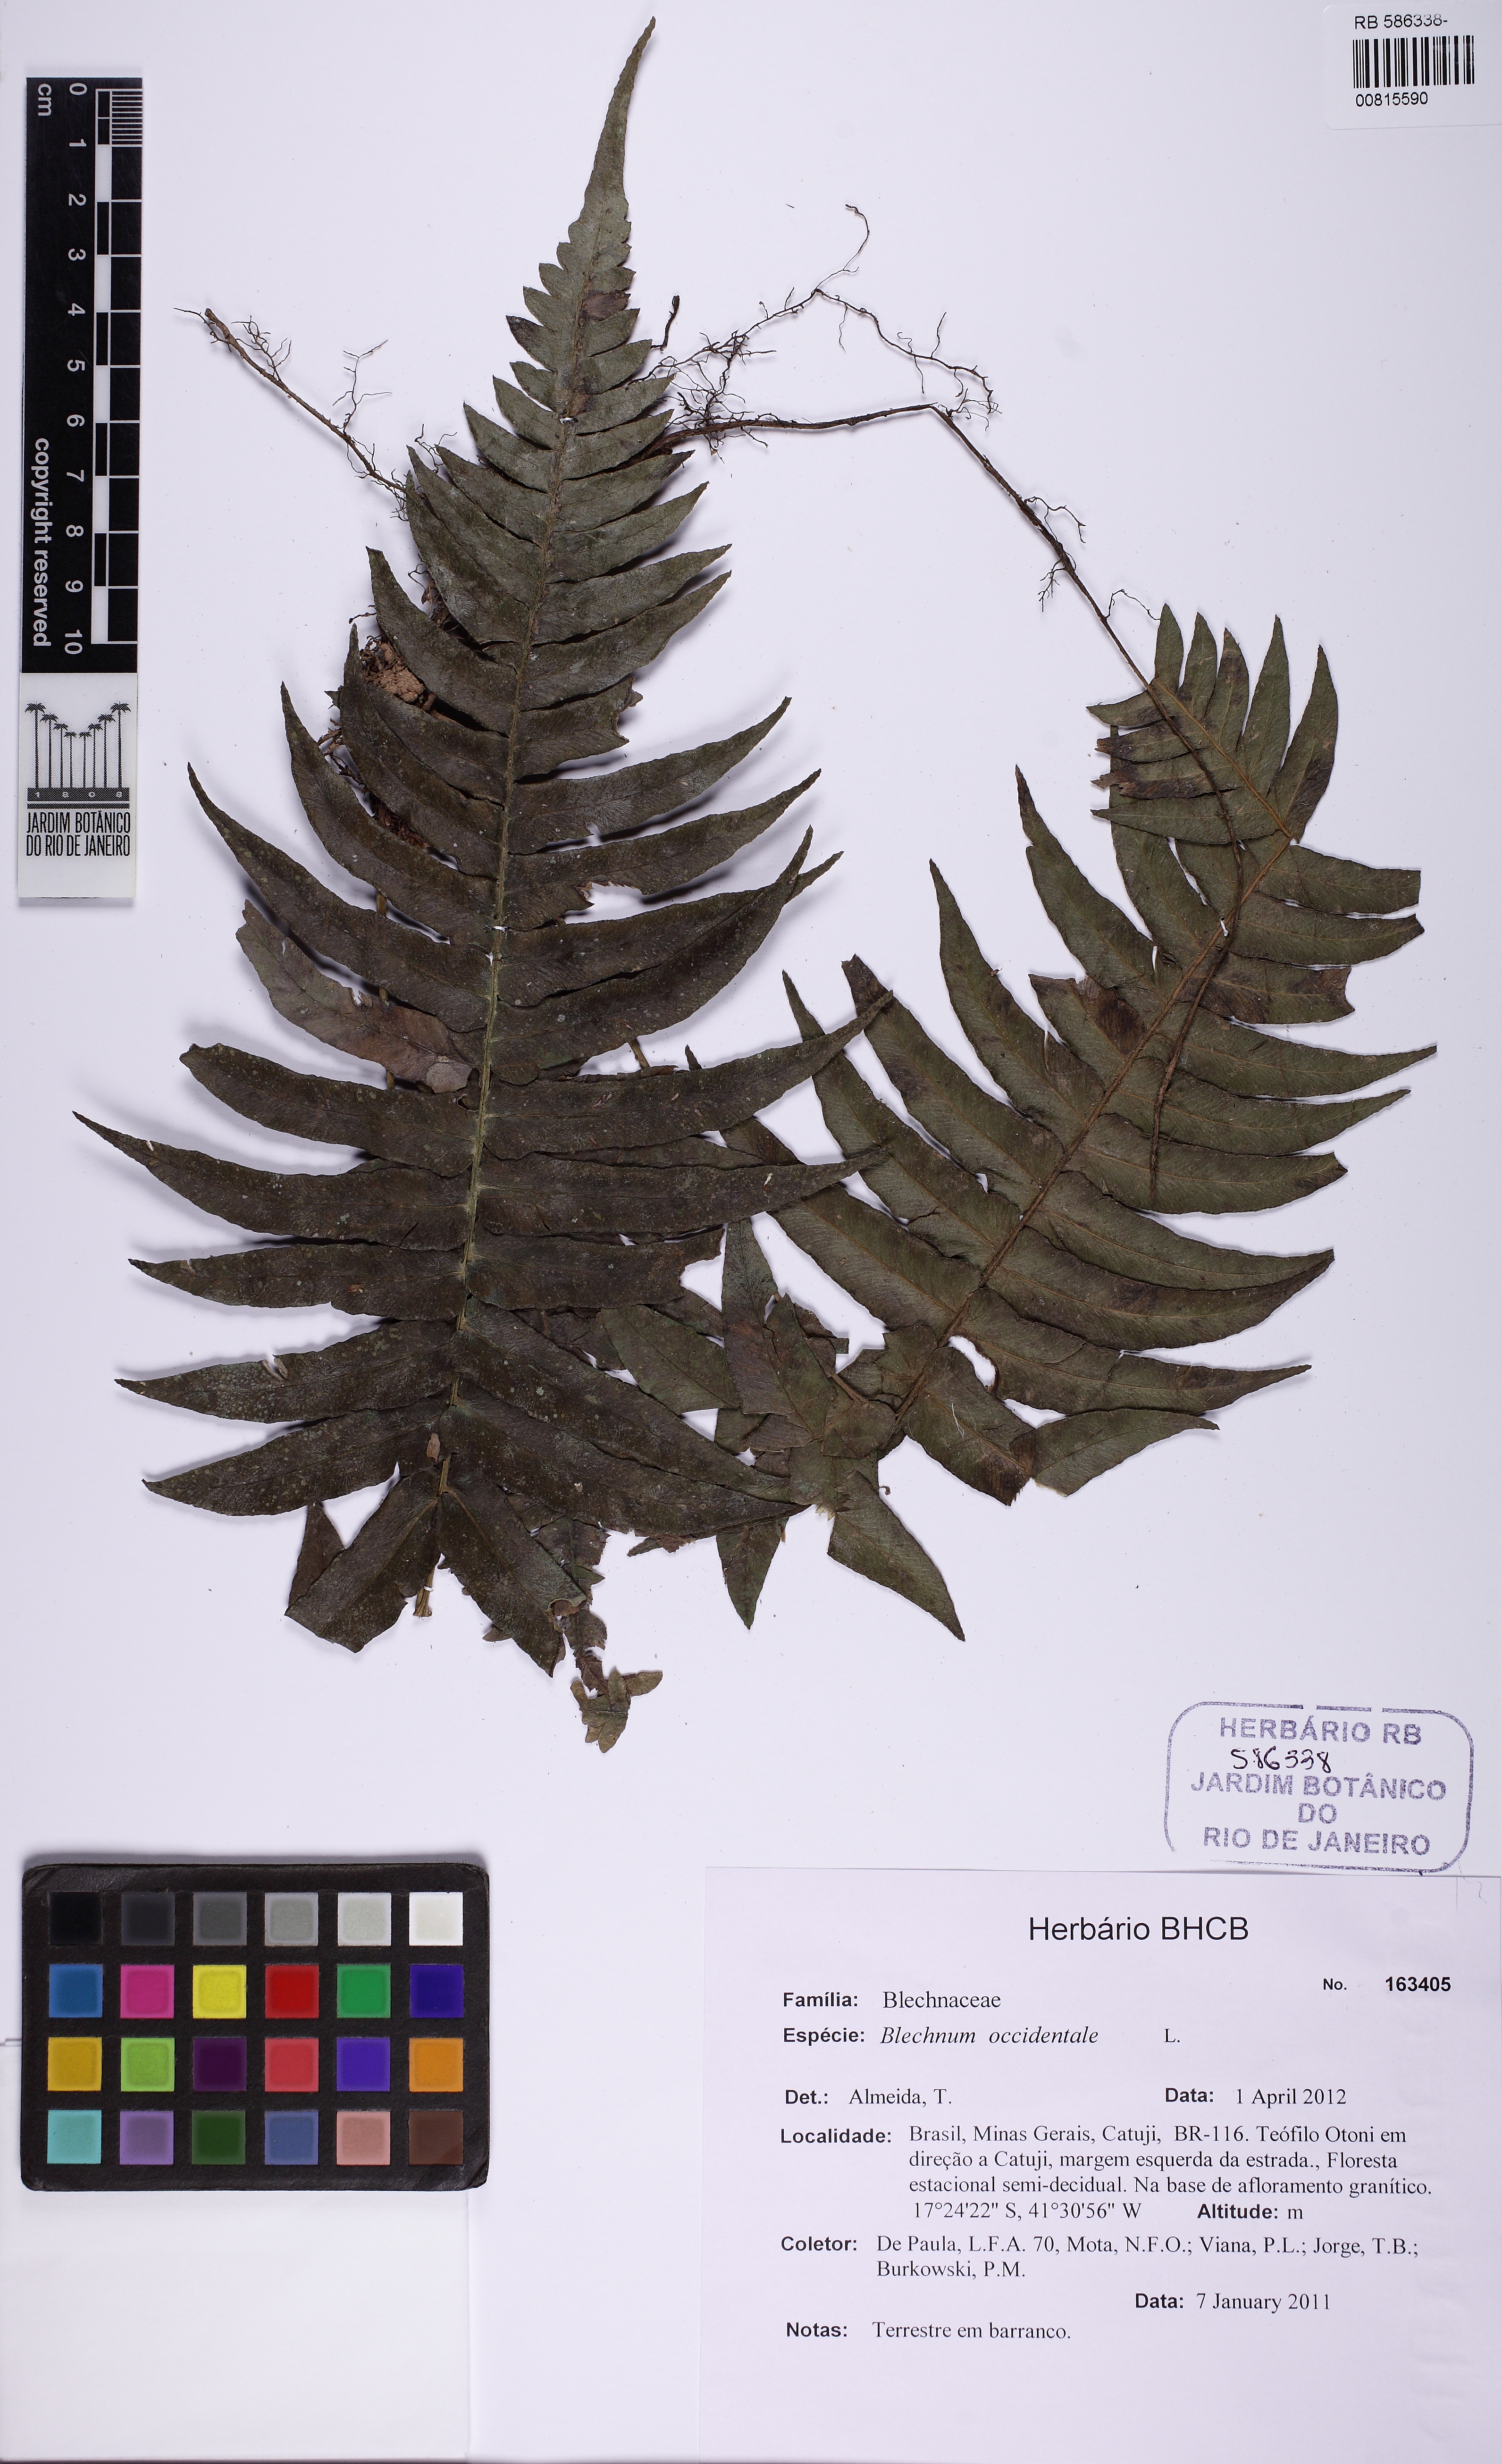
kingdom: Plantae
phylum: Tracheophyta
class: Polypodiopsida
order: Polypodiales
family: Blechnaceae
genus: Blechnum
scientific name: Blechnum occidentale
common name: Hammock fern
